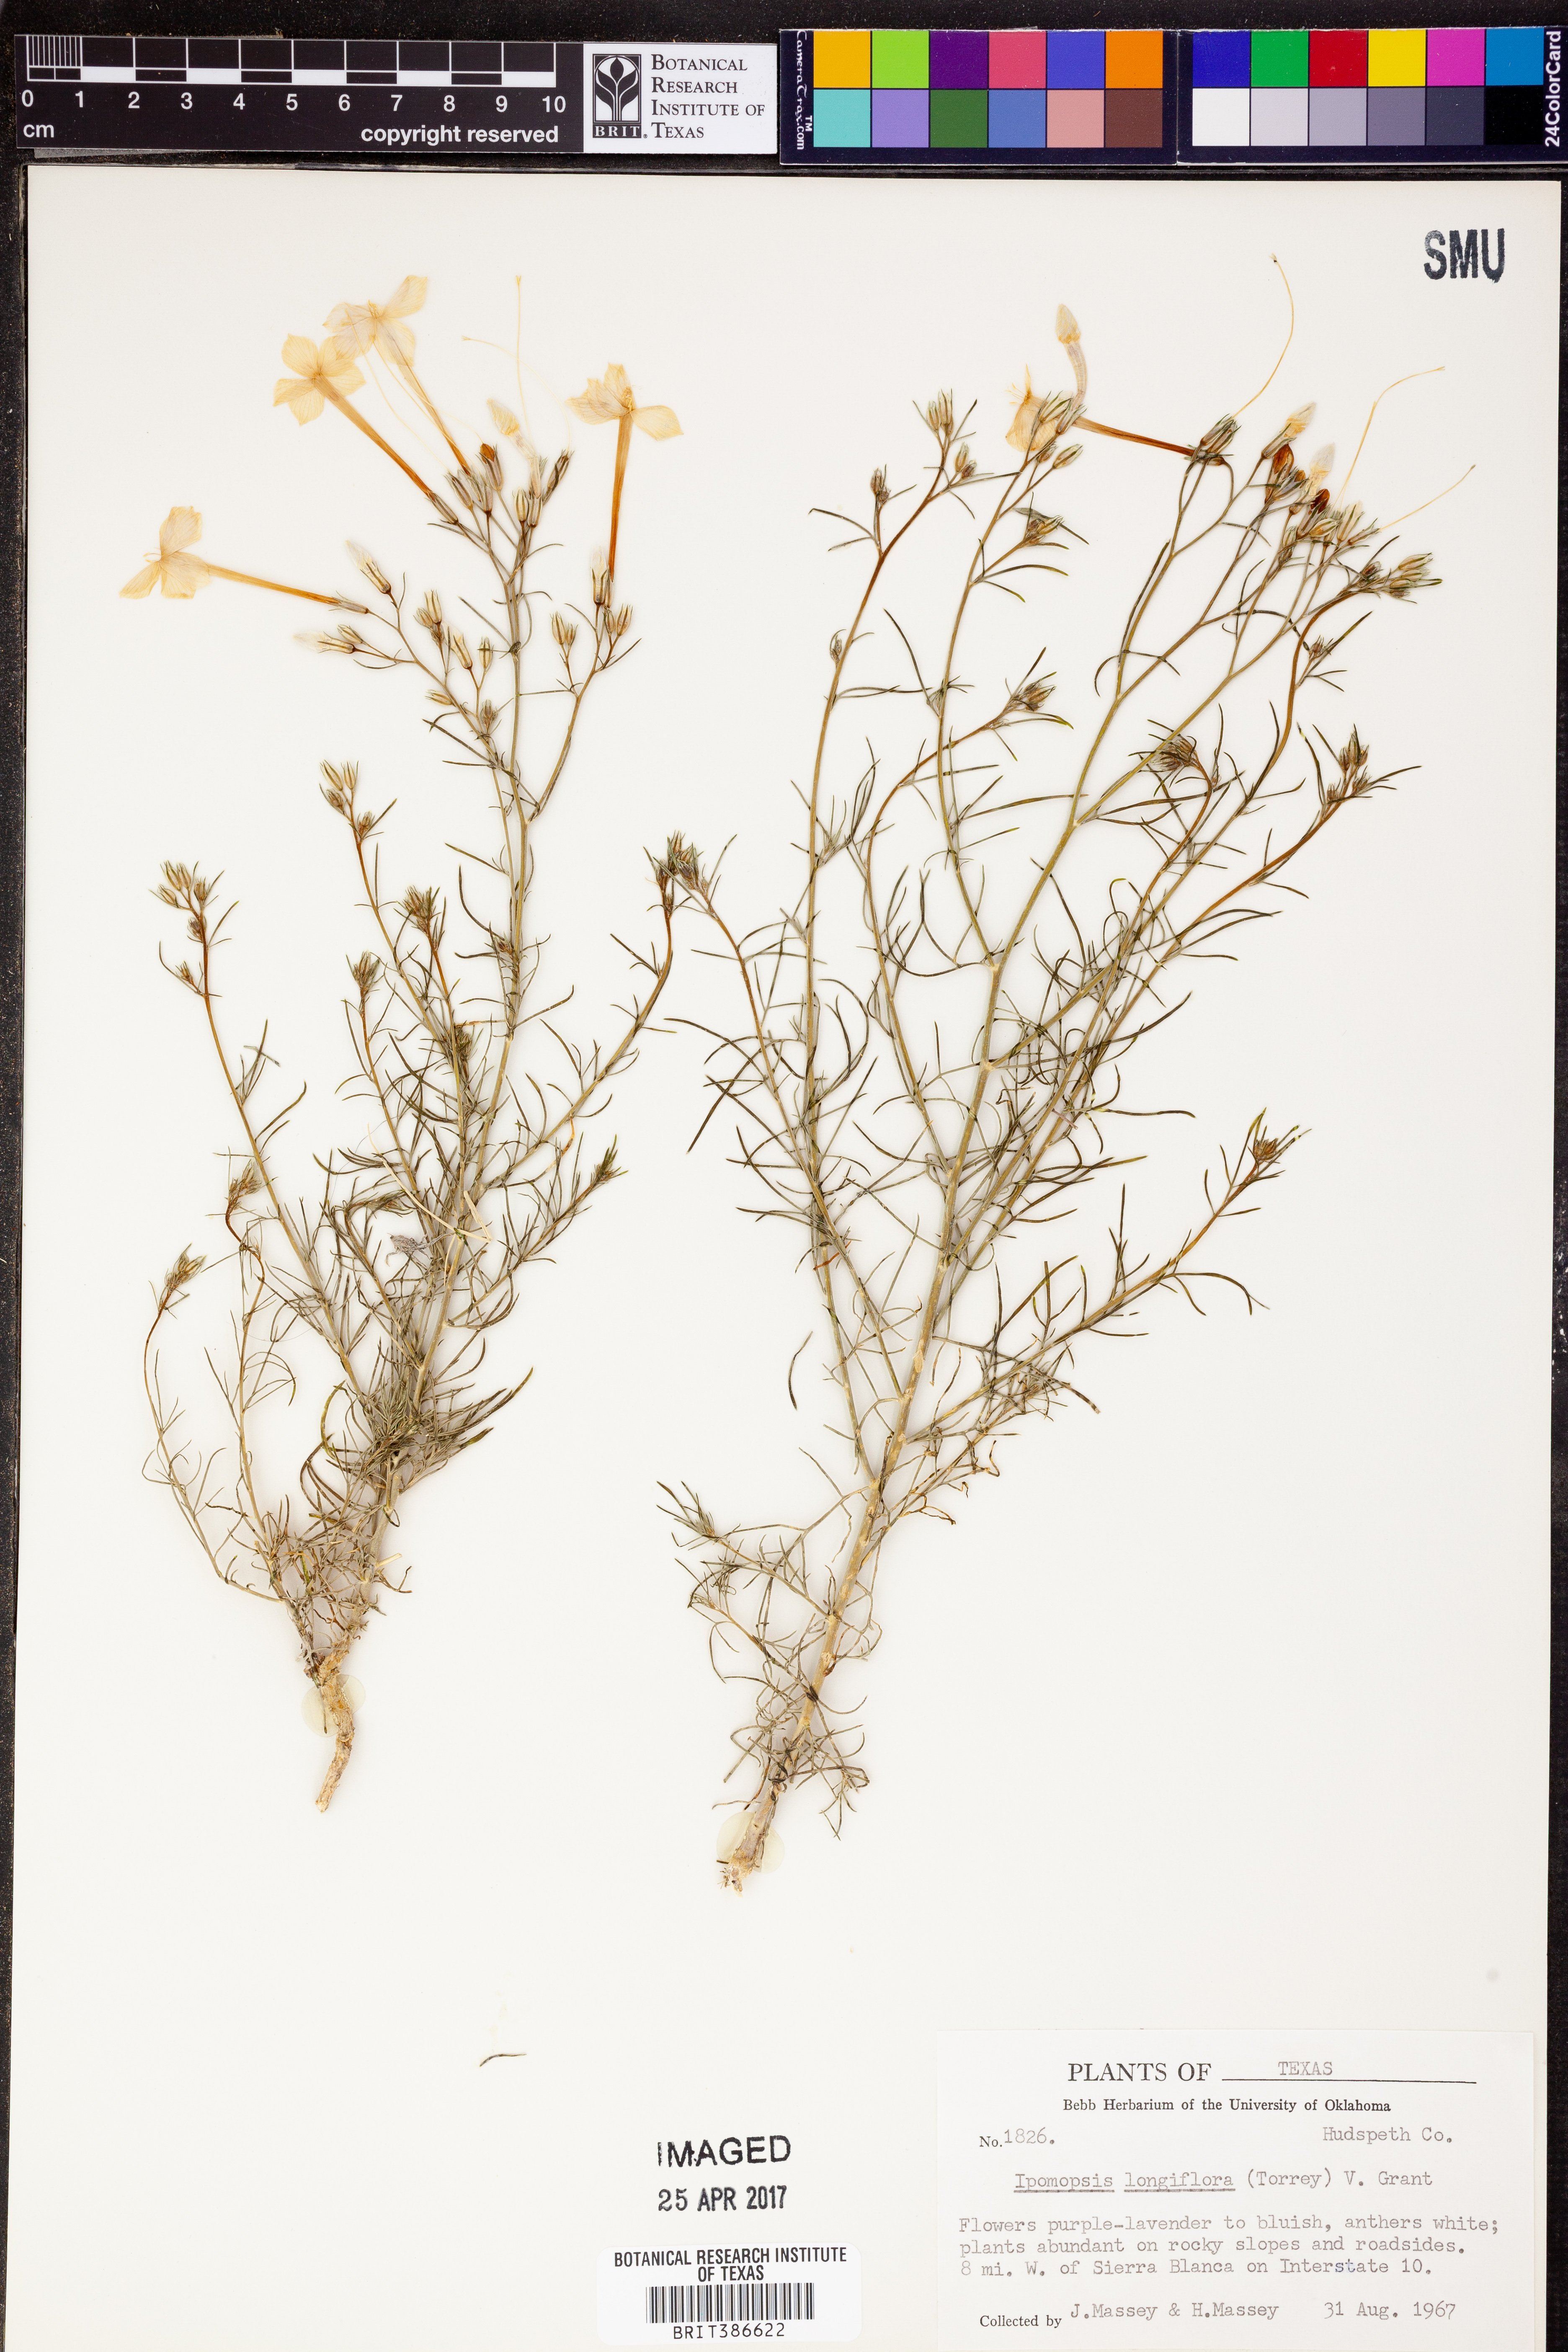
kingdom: Plantae
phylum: Tracheophyta
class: Magnoliopsida
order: Ericales
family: Polemoniaceae
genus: Ipomopsis
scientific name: Ipomopsis longiflora
